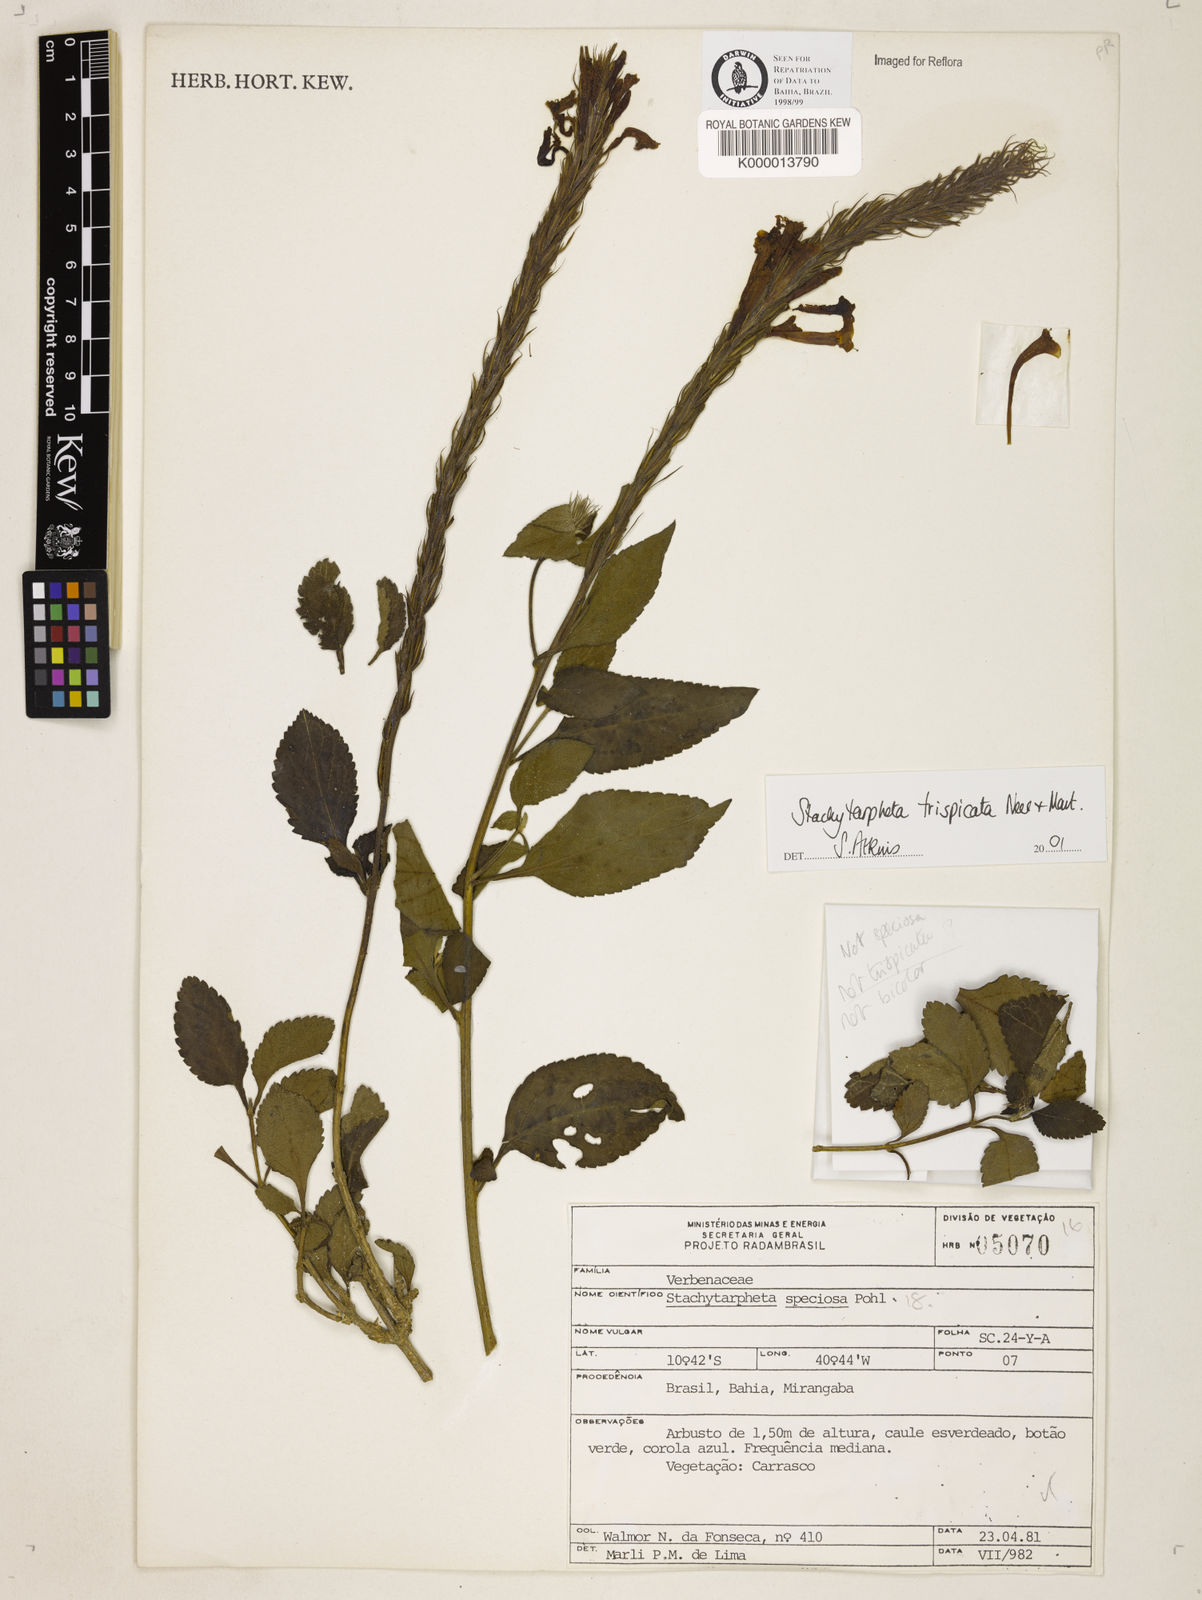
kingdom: Plantae
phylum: Tracheophyta
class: Magnoliopsida
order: Lamiales
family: Verbenaceae
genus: Stachytarpheta
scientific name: Stachytarpheta
